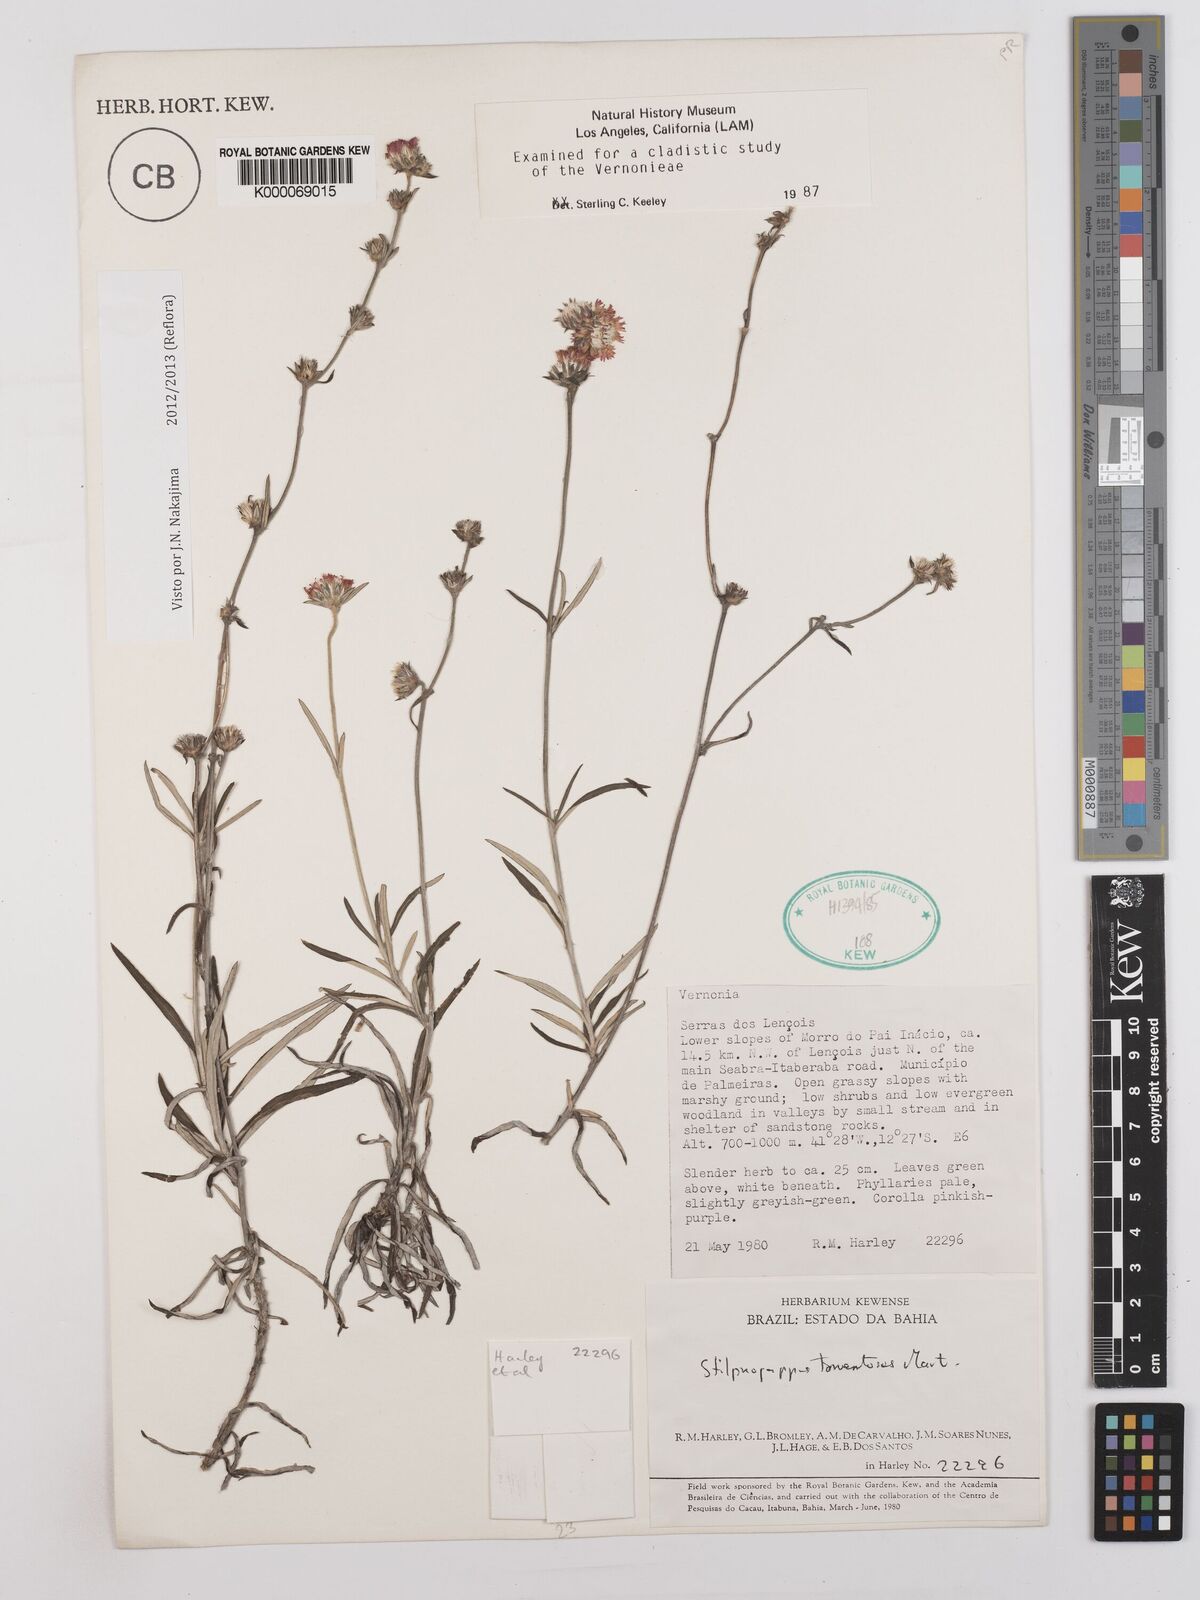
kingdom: Plantae
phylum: Tracheophyta
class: Magnoliopsida
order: Asterales
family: Asteraceae
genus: Stilpnopappus
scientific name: Stilpnopappus tomentosus
